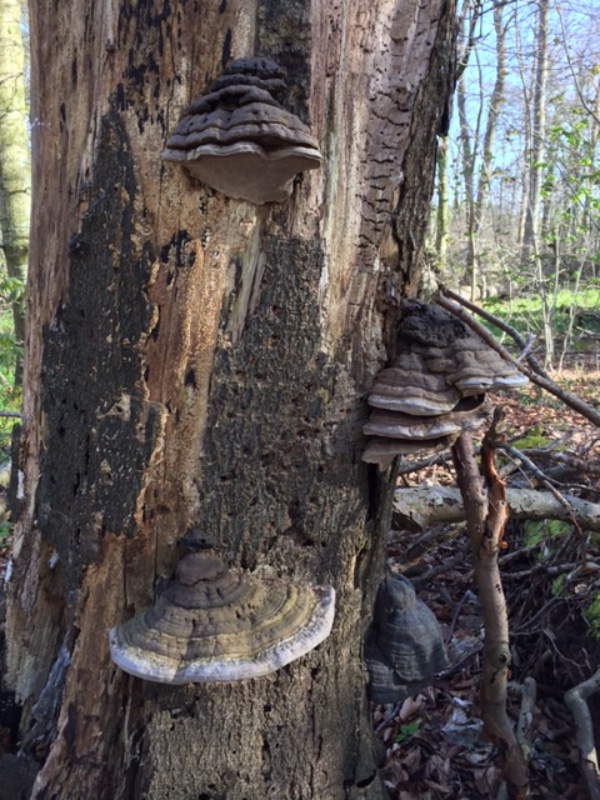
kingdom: Fungi
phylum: Basidiomycota
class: Agaricomycetes
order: Polyporales
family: Polyporaceae
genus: Ganoderma
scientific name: Ganoderma applanatum
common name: flad lakporesvamp
